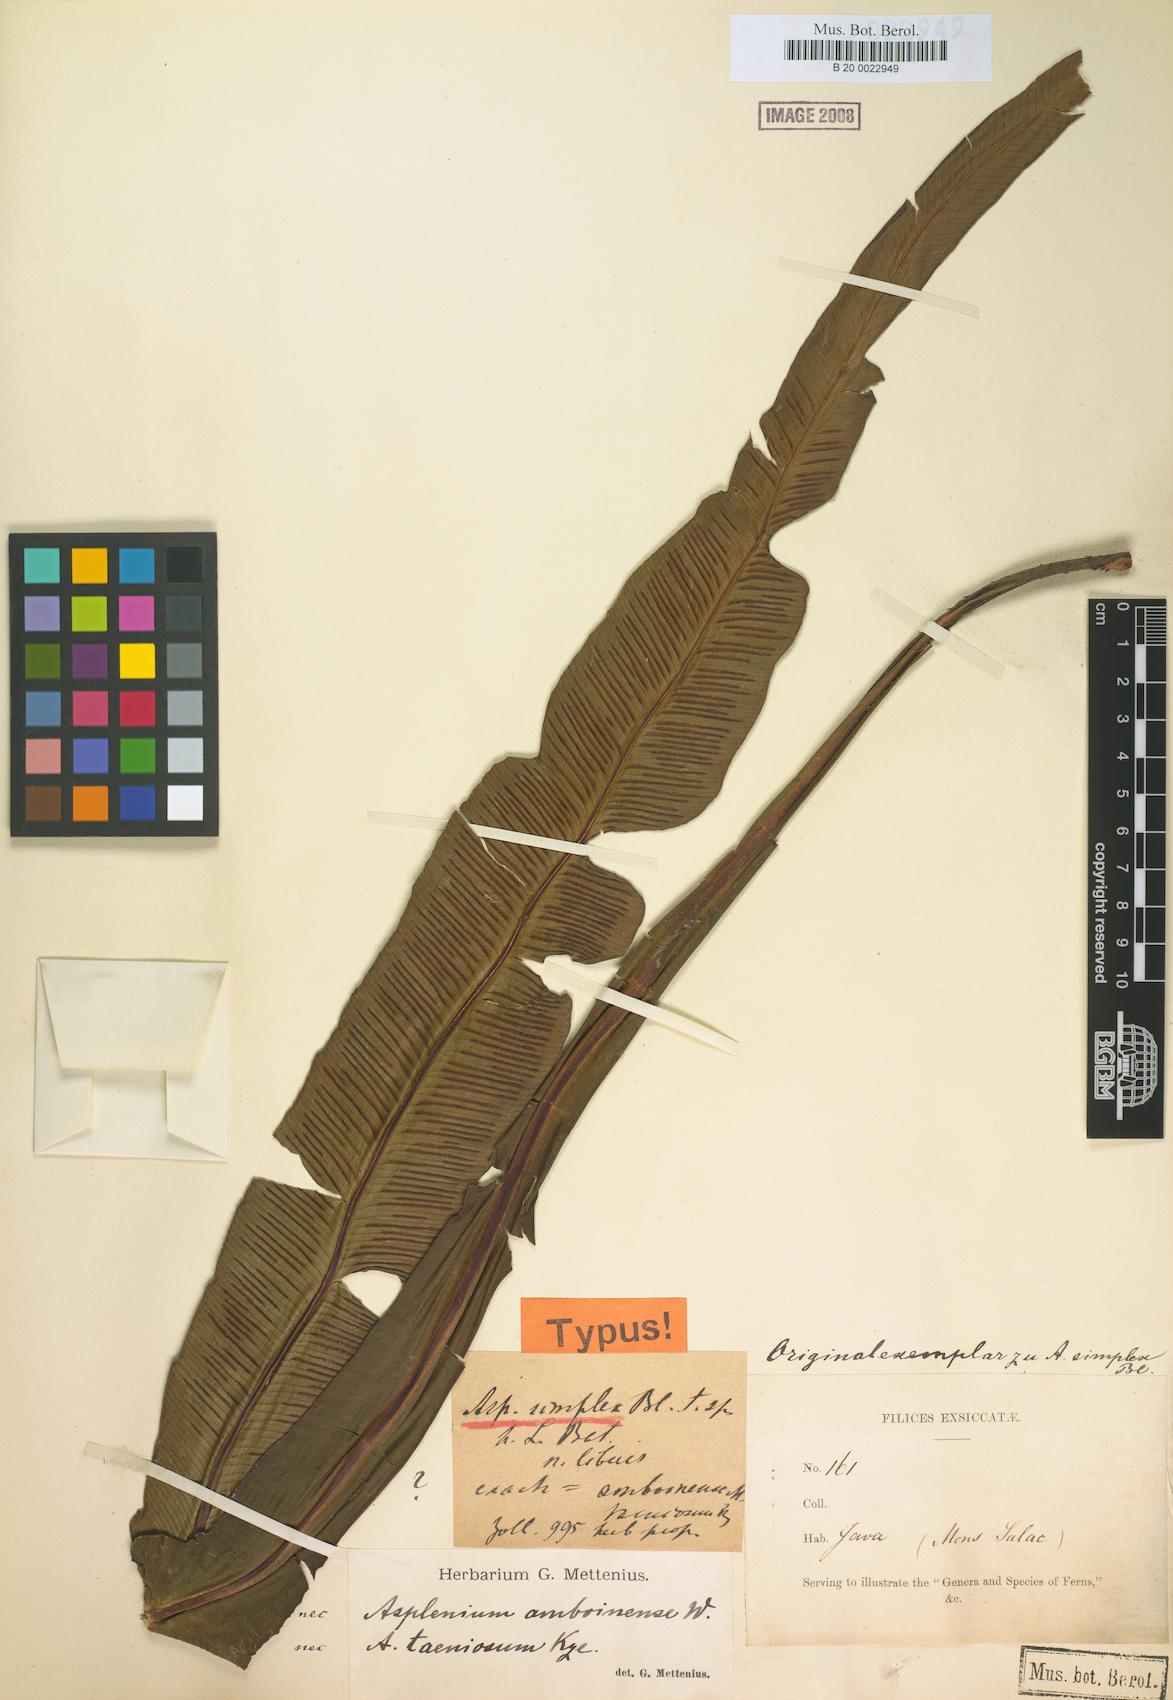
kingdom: Plantae
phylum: Tracheophyta
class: Polypodiopsida
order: Polypodiales
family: Thelypteridaceae
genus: Grypothrix
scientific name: Grypothrix simplex
